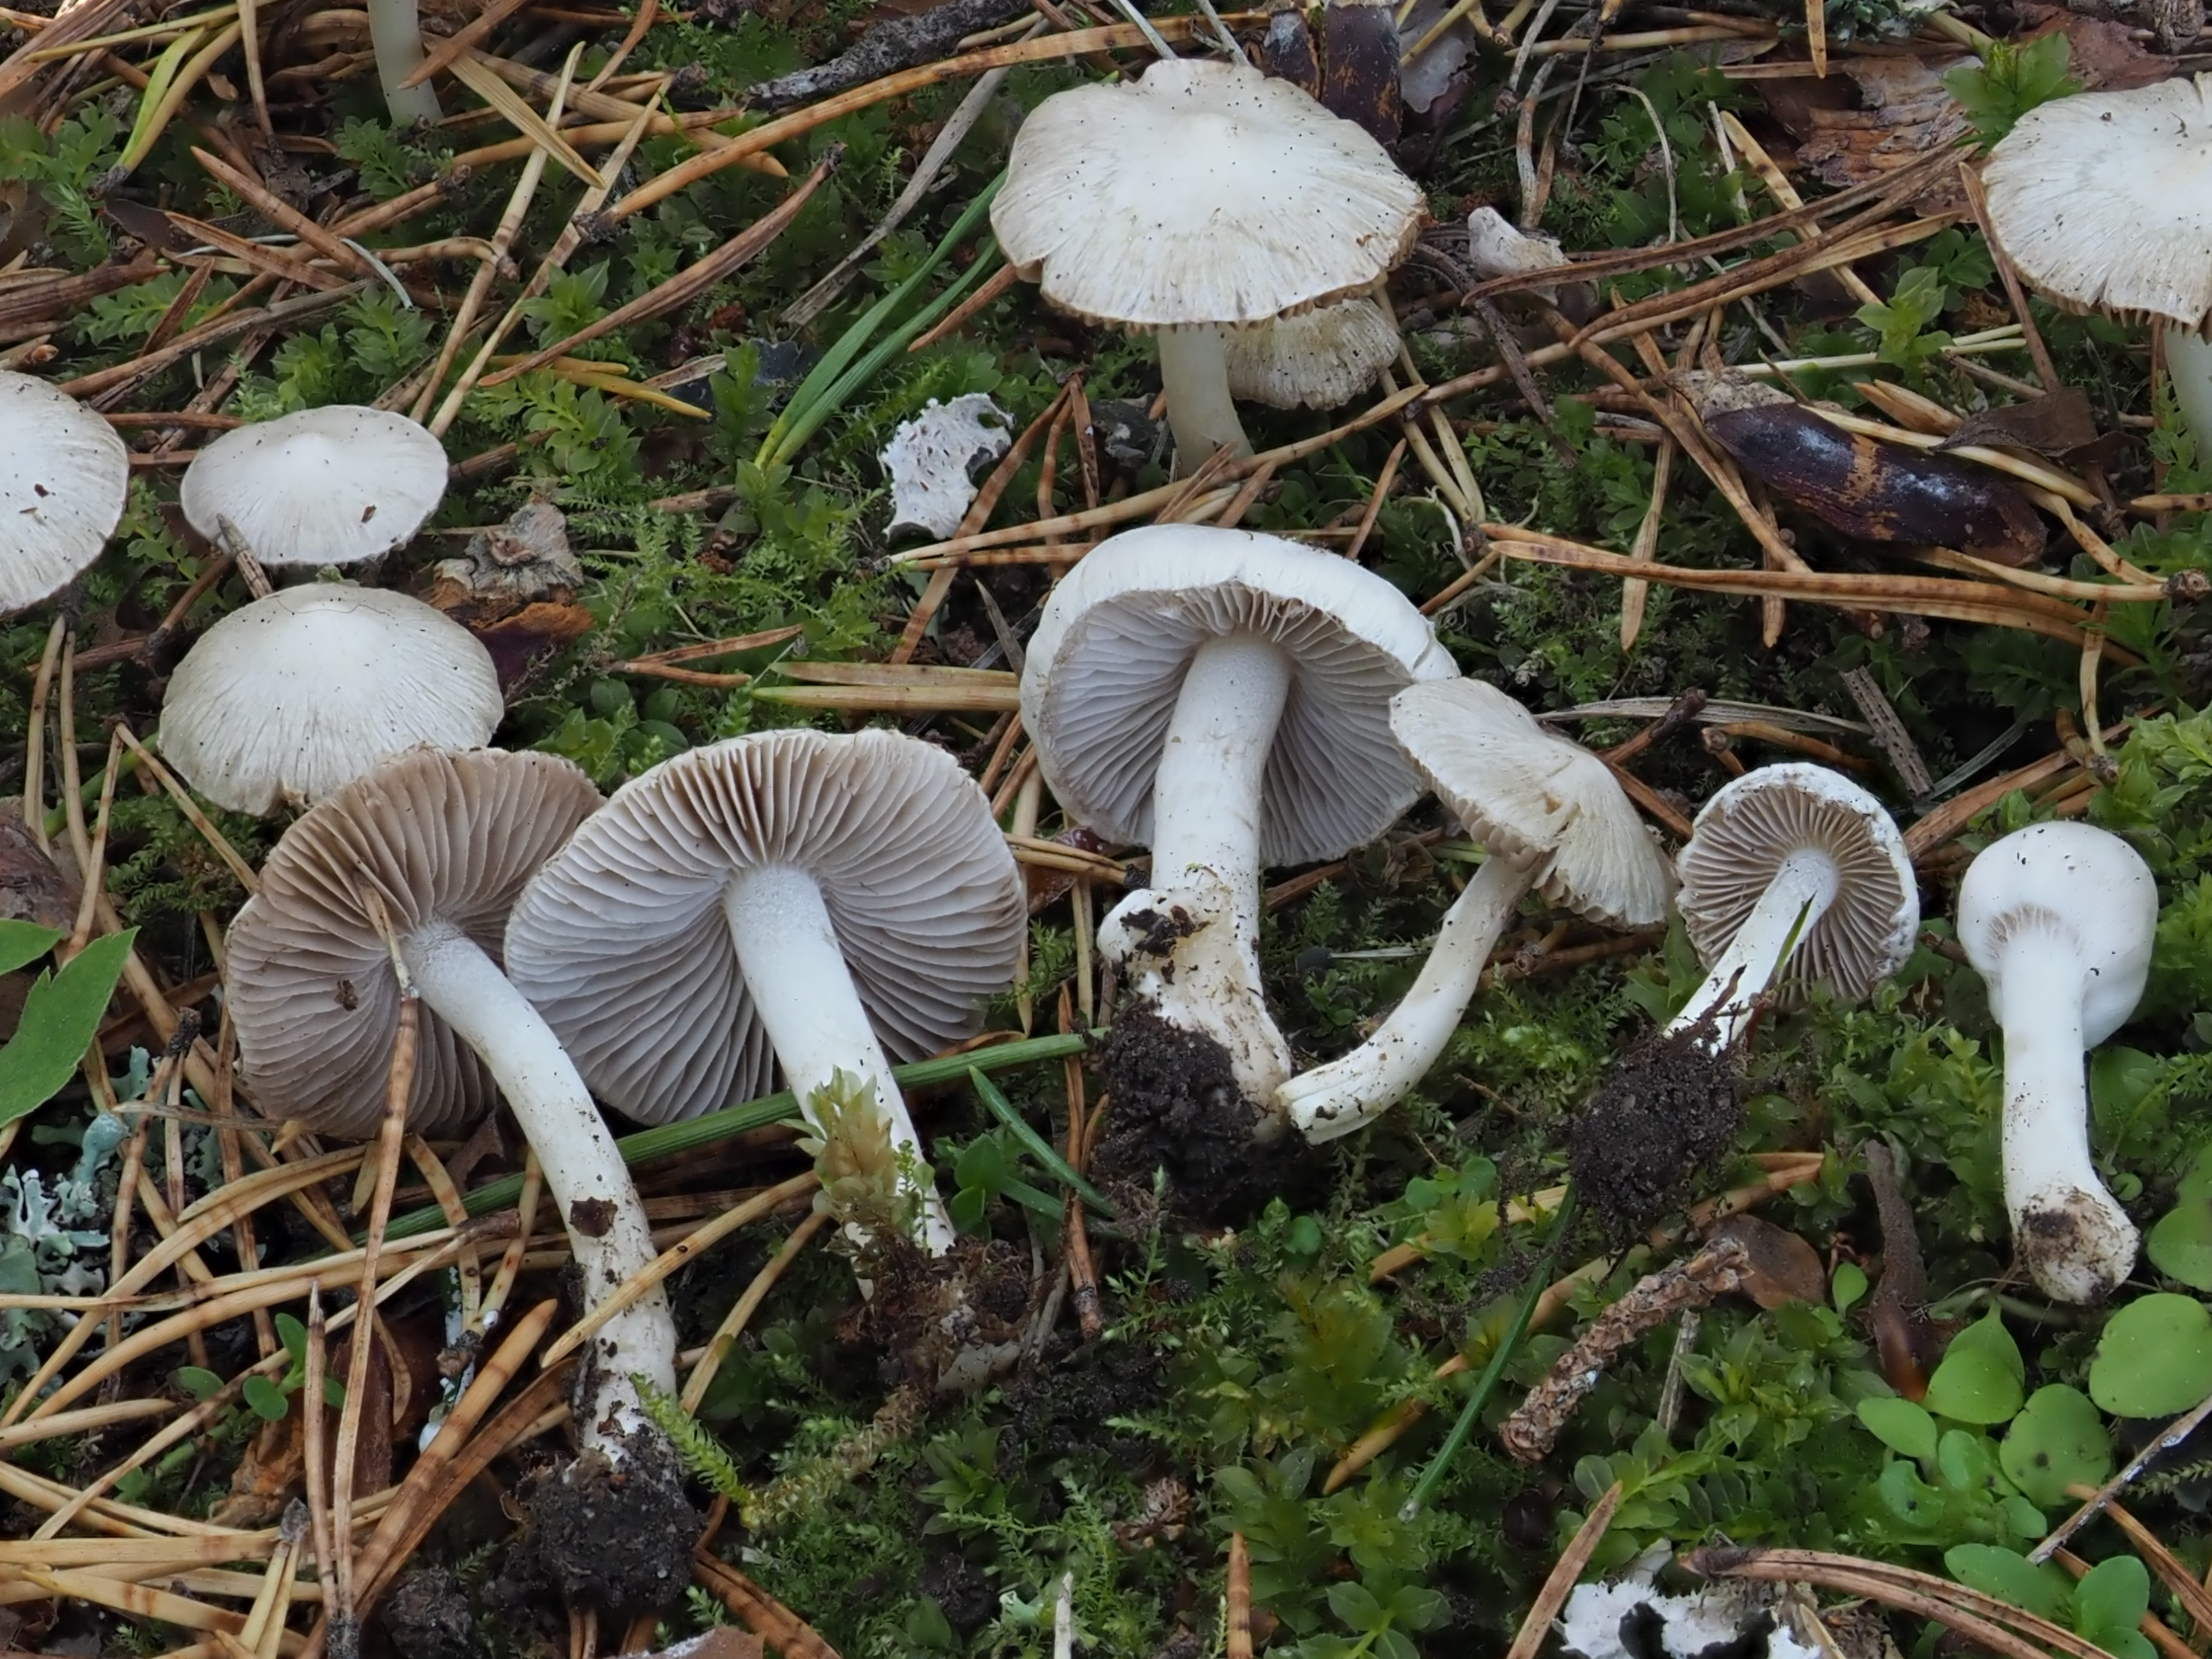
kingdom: Fungi
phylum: Basidiomycota
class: Agaricomycetes
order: Agaricales
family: Inocybaceae
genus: Inocybe
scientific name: Inocybe geophylla
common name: White fibrecap
